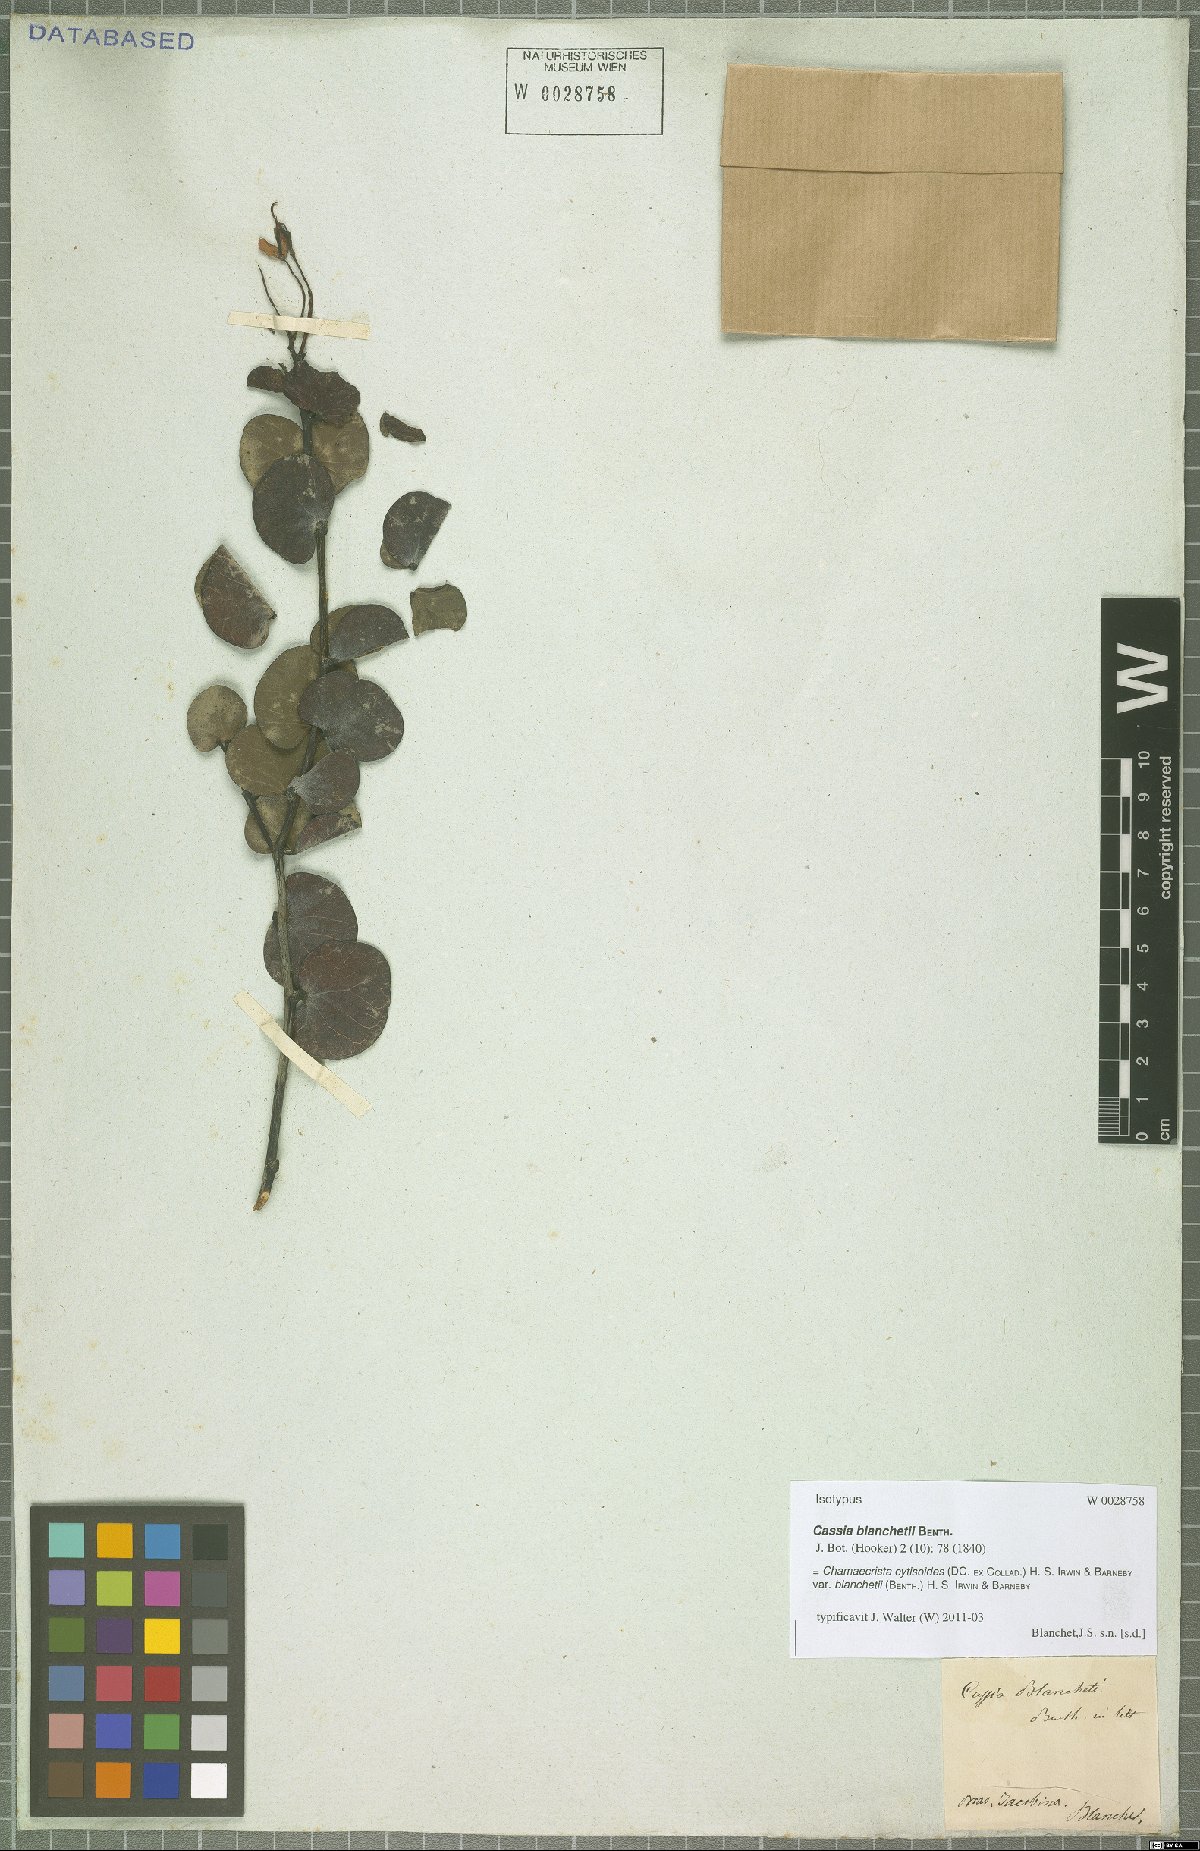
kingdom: Plantae
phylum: Tracheophyta
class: Magnoliopsida
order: Fabales
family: Fabaceae
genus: Chamaecrista
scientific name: Chamaecrista blanchetii
